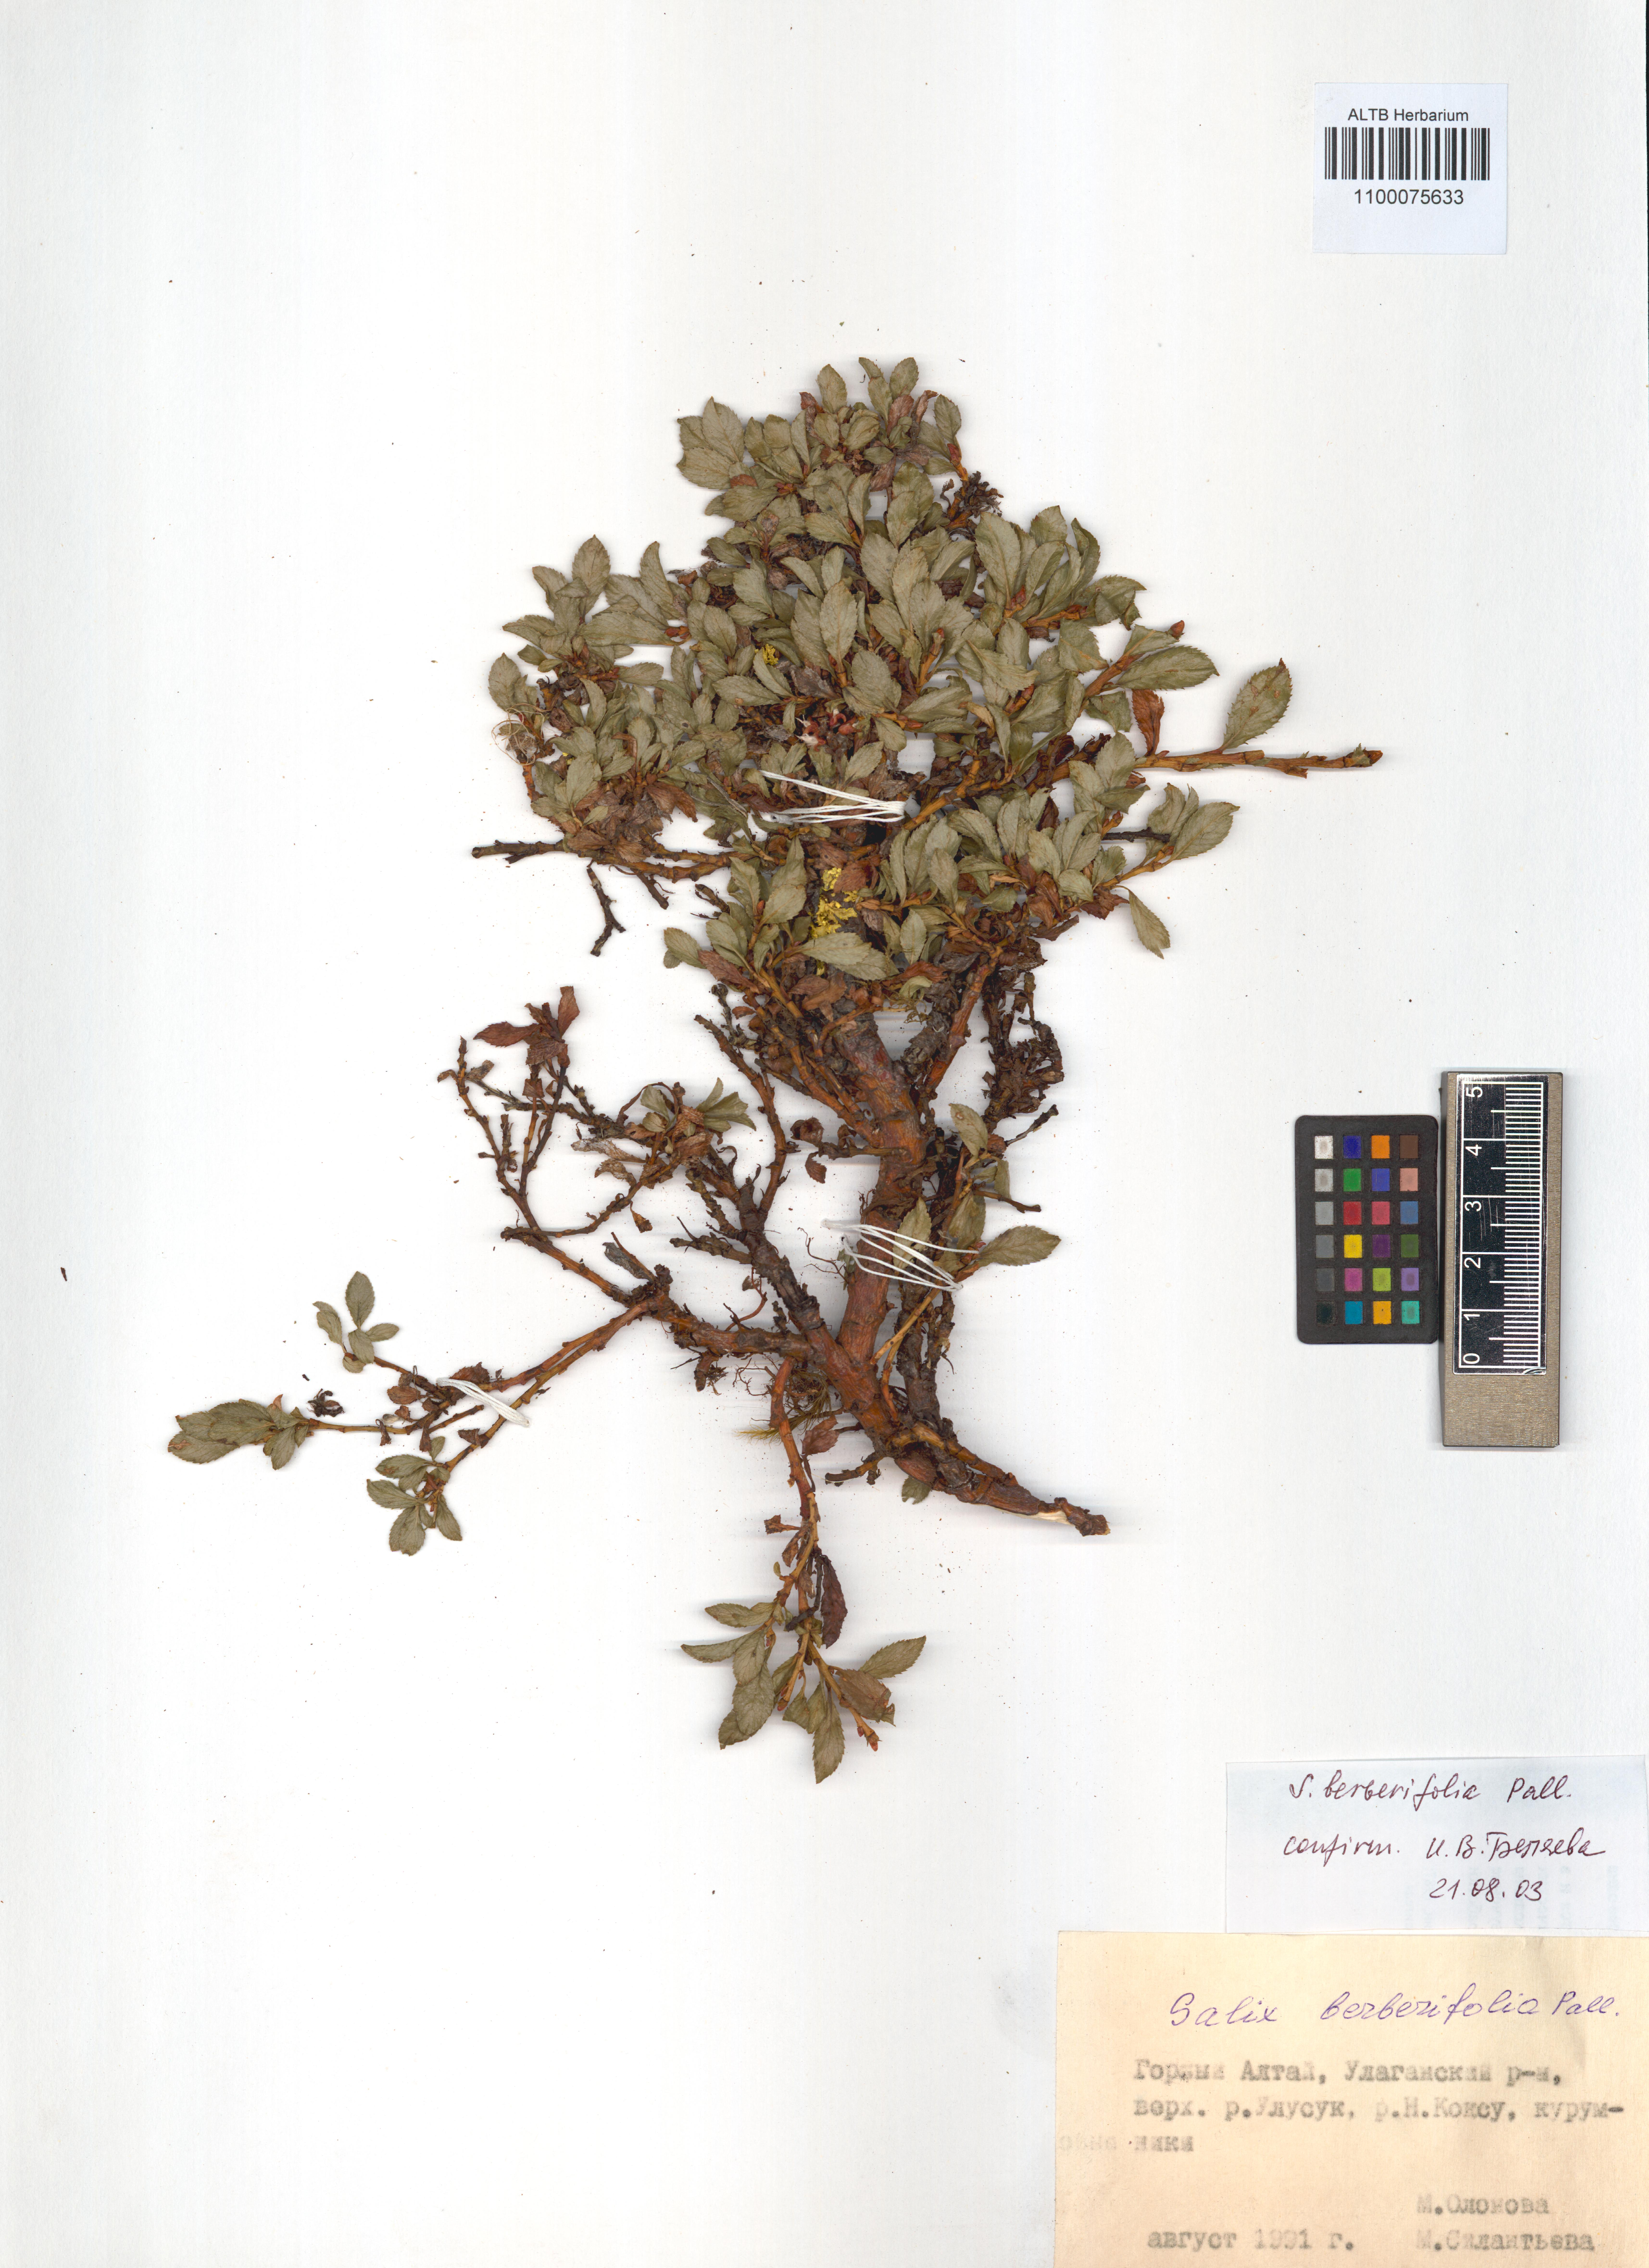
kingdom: Plantae
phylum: Tracheophyta
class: Magnoliopsida
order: Malpighiales
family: Salicaceae
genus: Salix
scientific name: Salix berberifolia
